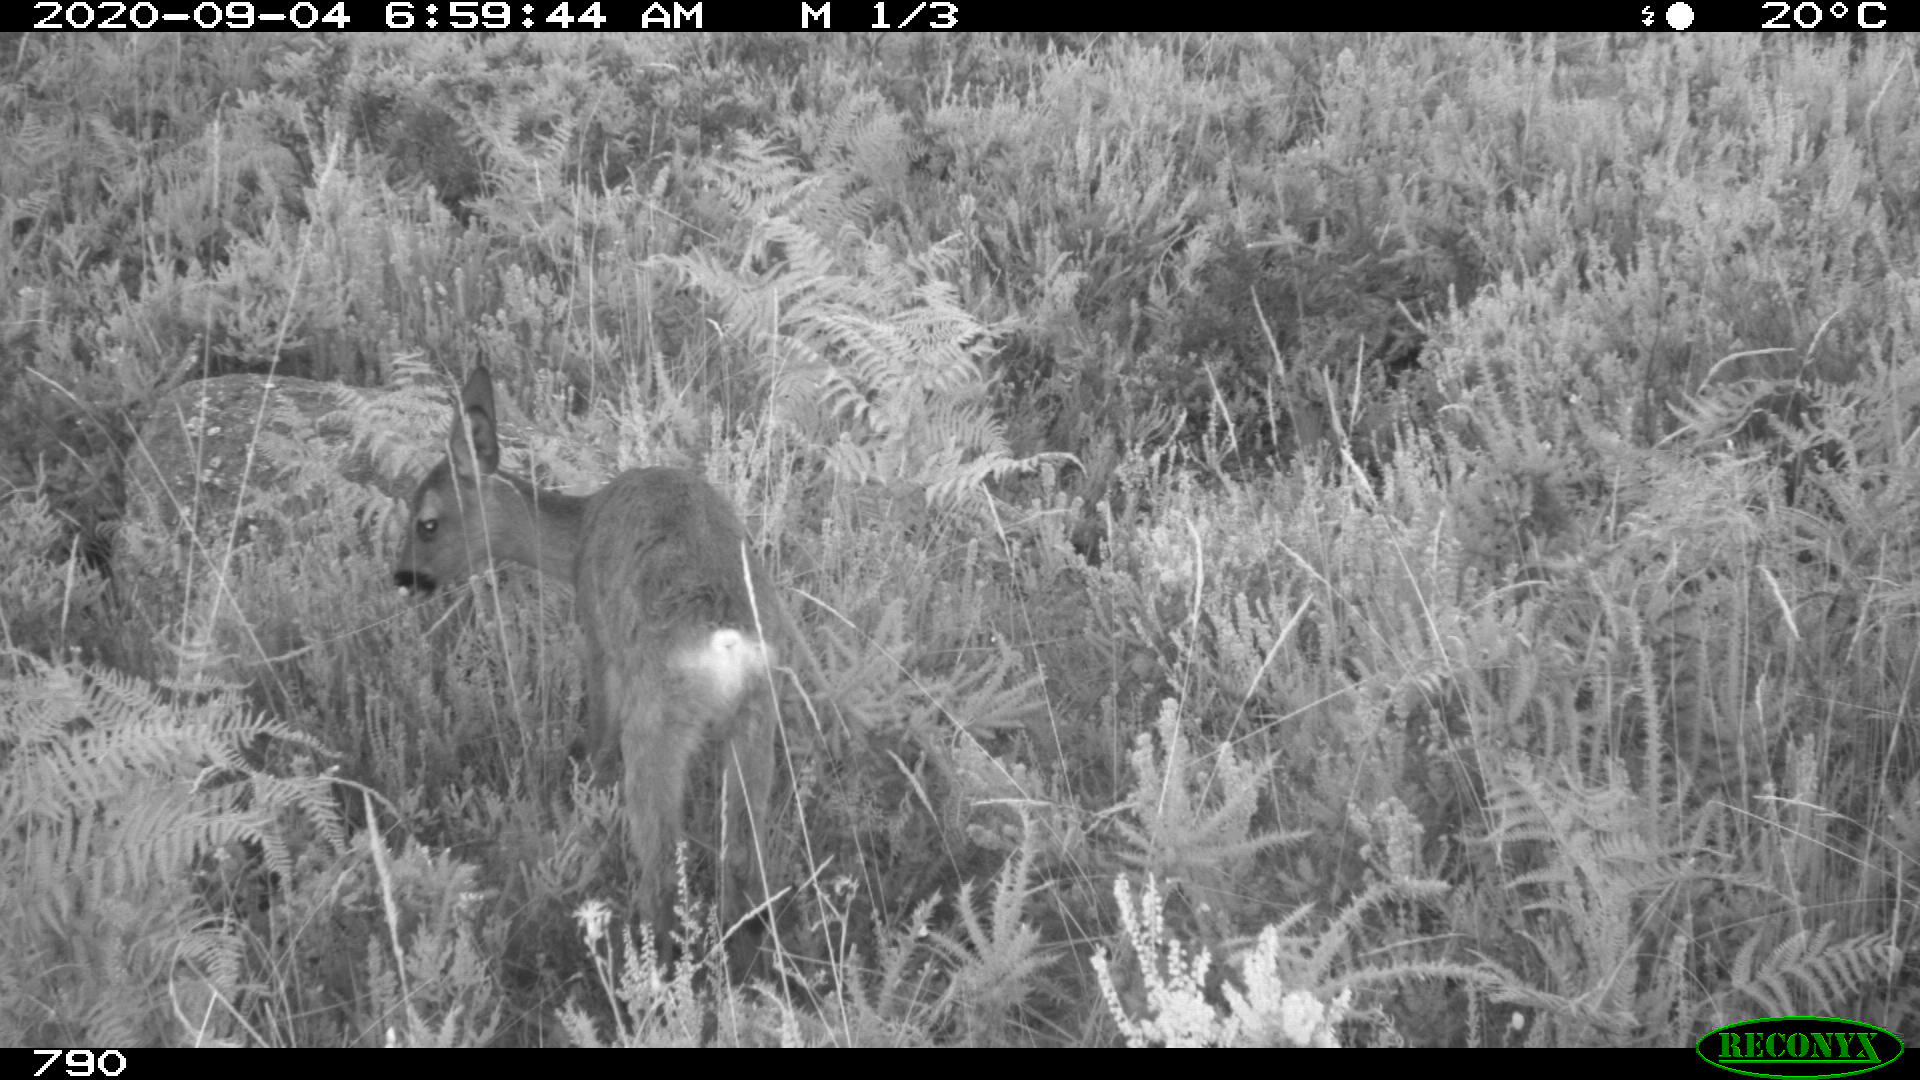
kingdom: Animalia
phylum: Chordata
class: Mammalia
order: Artiodactyla
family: Cervidae
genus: Capreolus
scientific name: Capreolus capreolus
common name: Western roe deer
